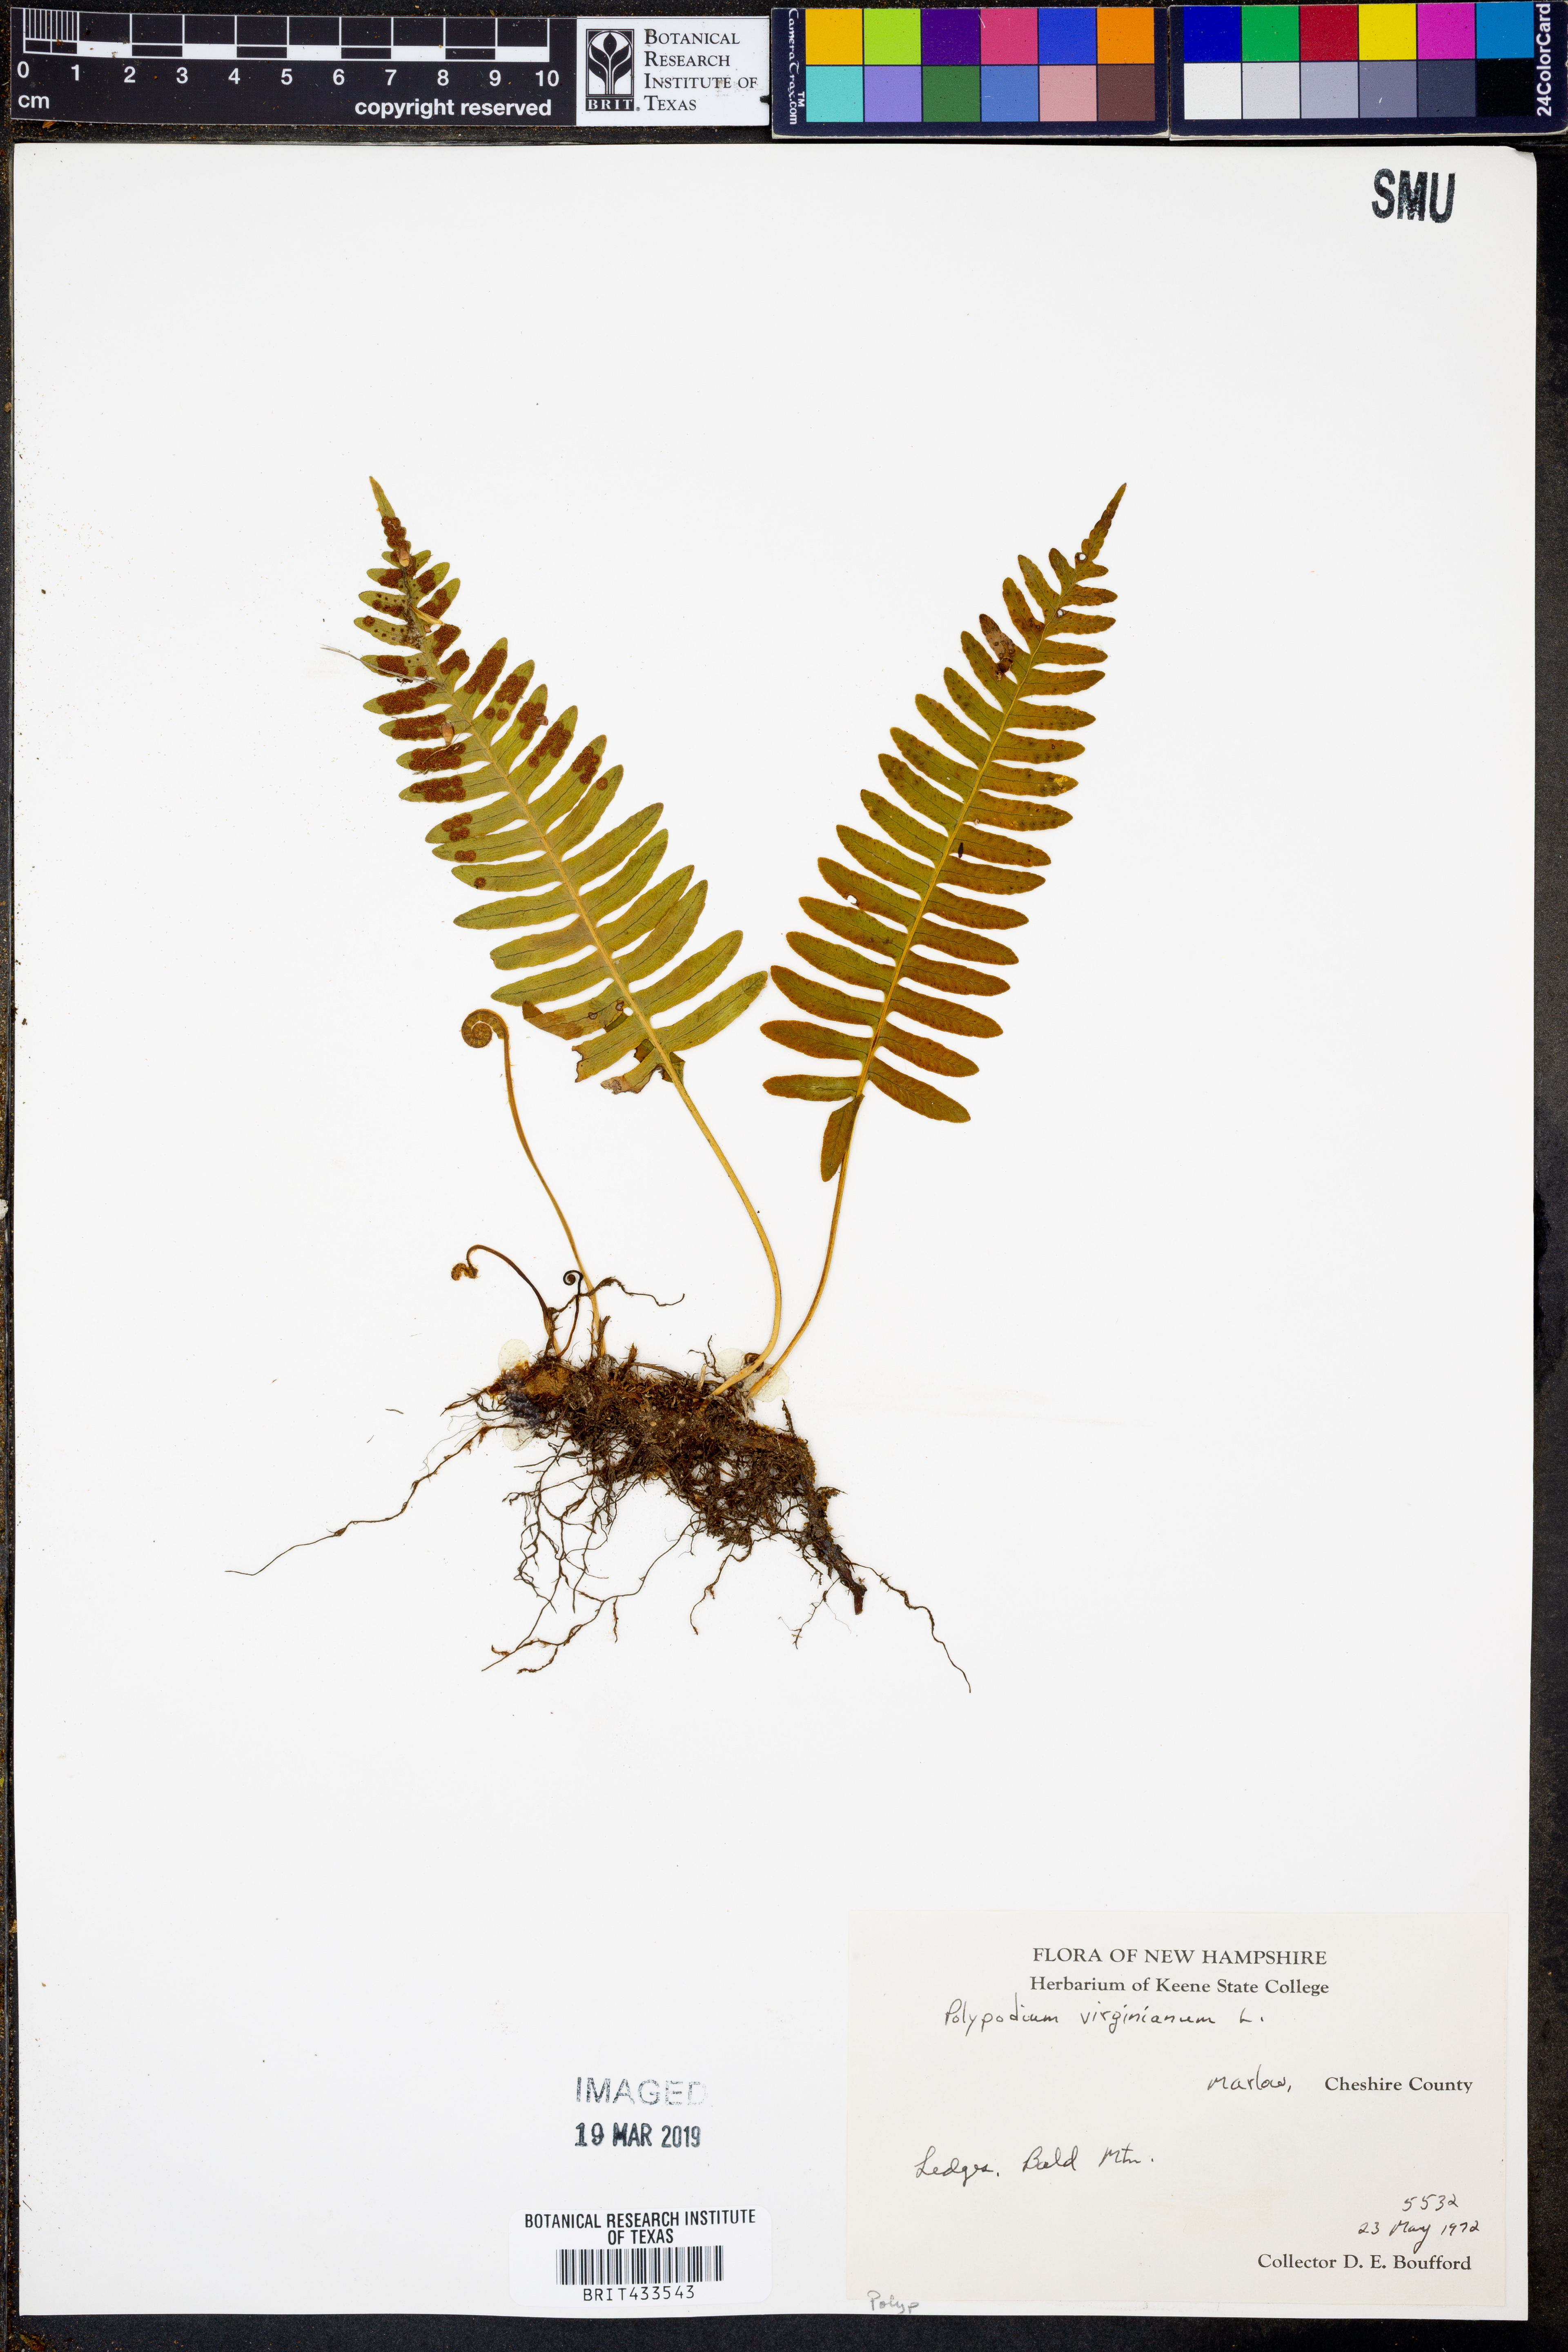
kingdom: Plantae
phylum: Tracheophyta
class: Polypodiopsida
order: Polypodiales
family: Polypodiaceae
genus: Polypodium
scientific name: Polypodium virginianum
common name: American wall fern
